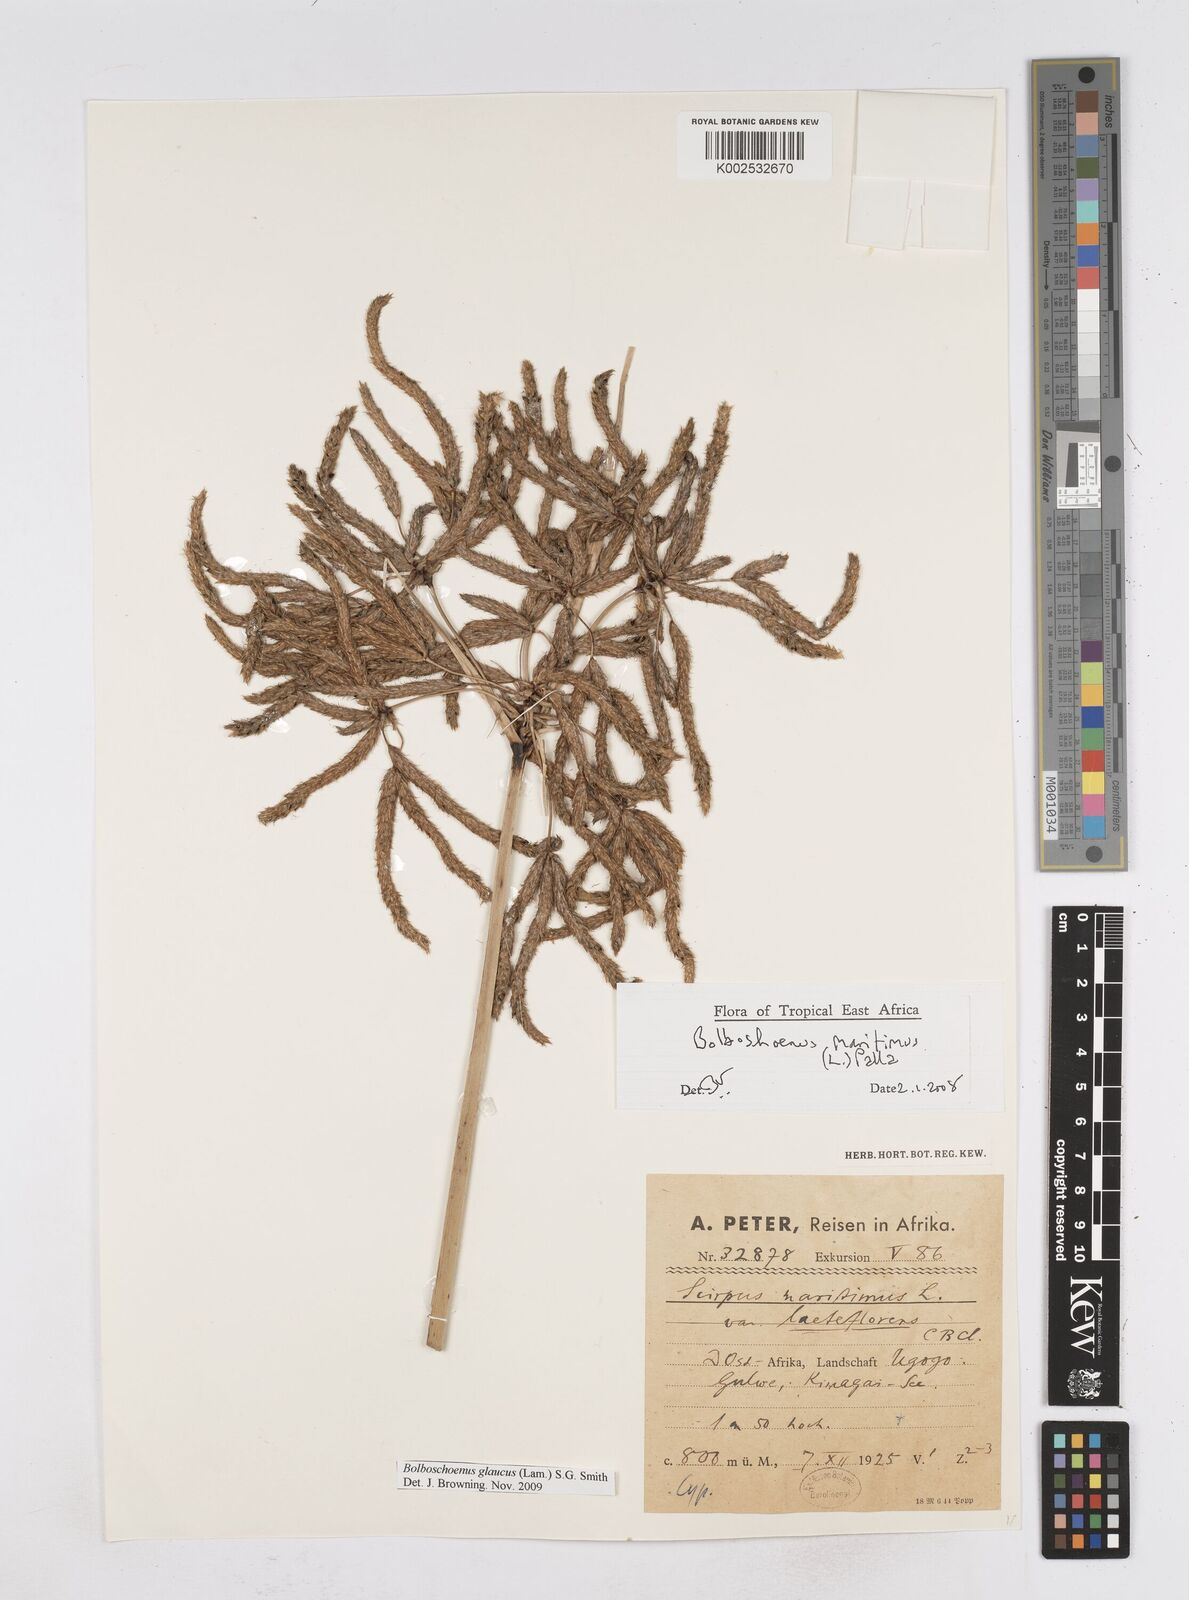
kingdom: Plantae
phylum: Tracheophyta
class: Liliopsida
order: Poales
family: Cyperaceae
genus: Bolboschoenus
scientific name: Bolboschoenus glaucus
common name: Tuberous bulrush
